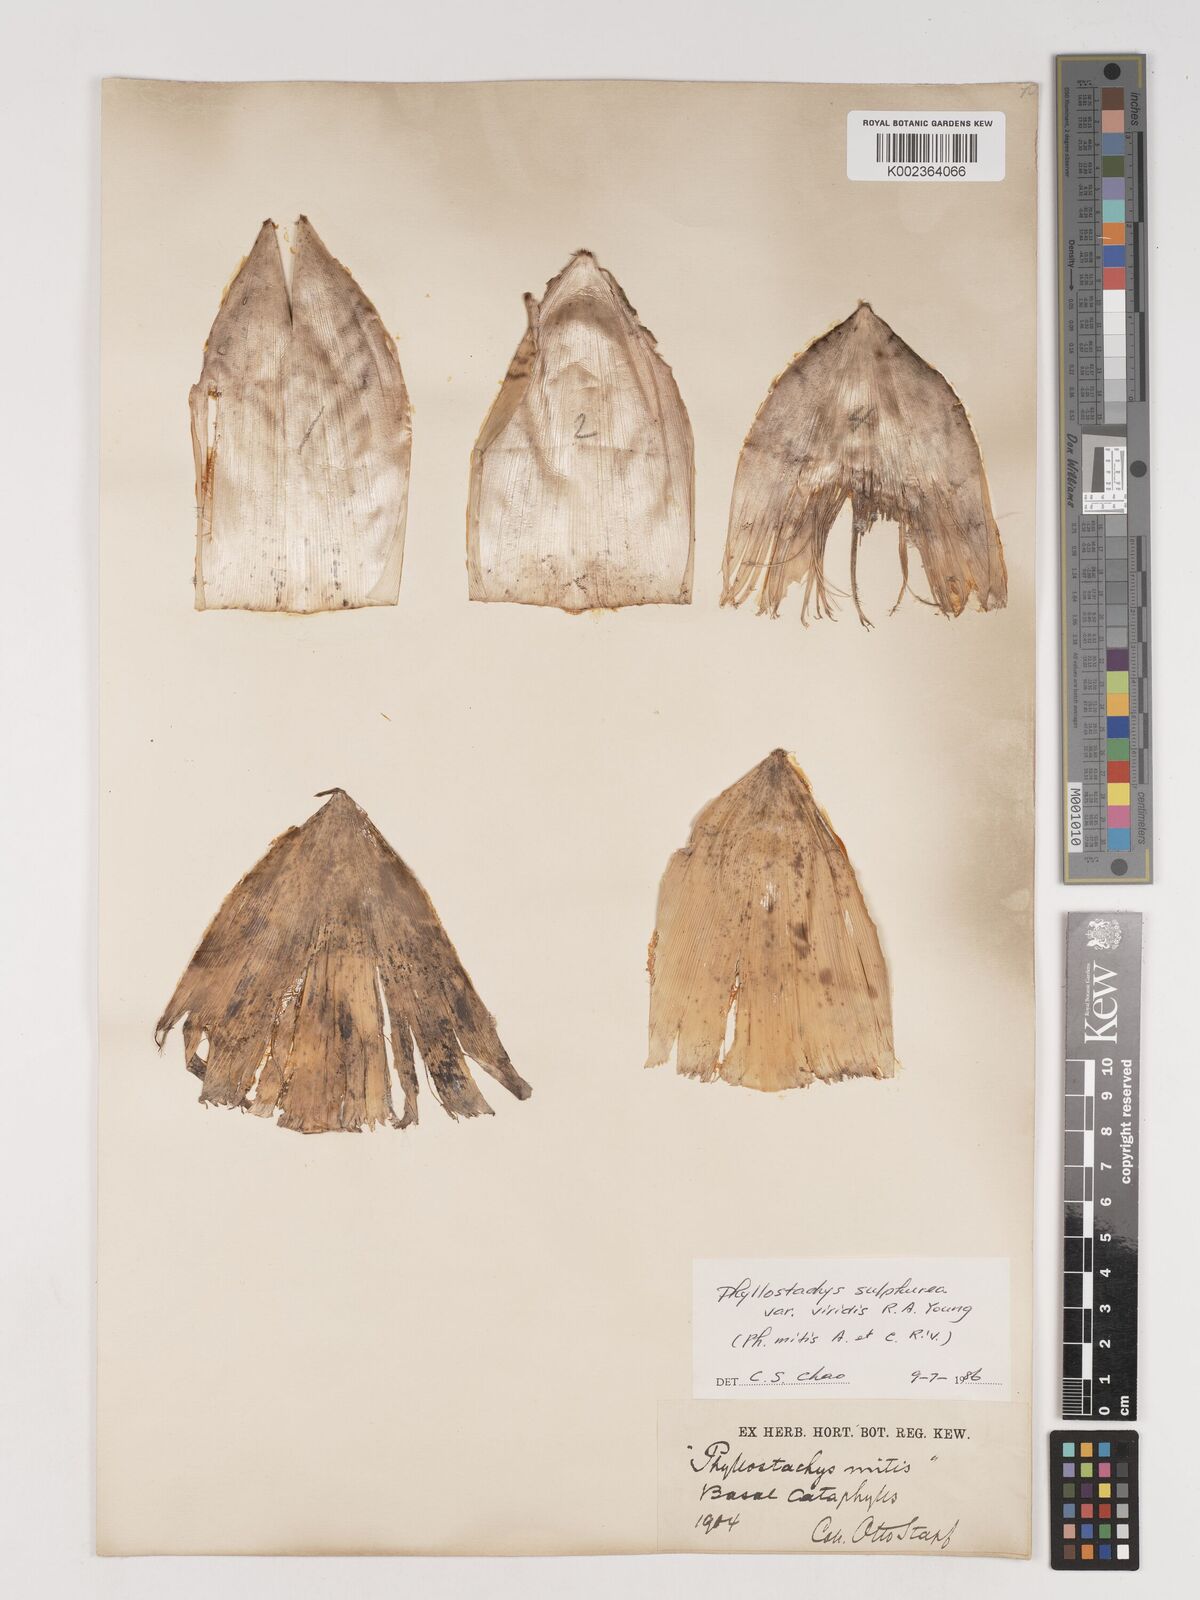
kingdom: Plantae
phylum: Tracheophyta
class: Liliopsida
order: Poales
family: Poaceae
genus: Phyllostachys
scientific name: Phyllostachys sulphurea
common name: Sulphur bamboo
